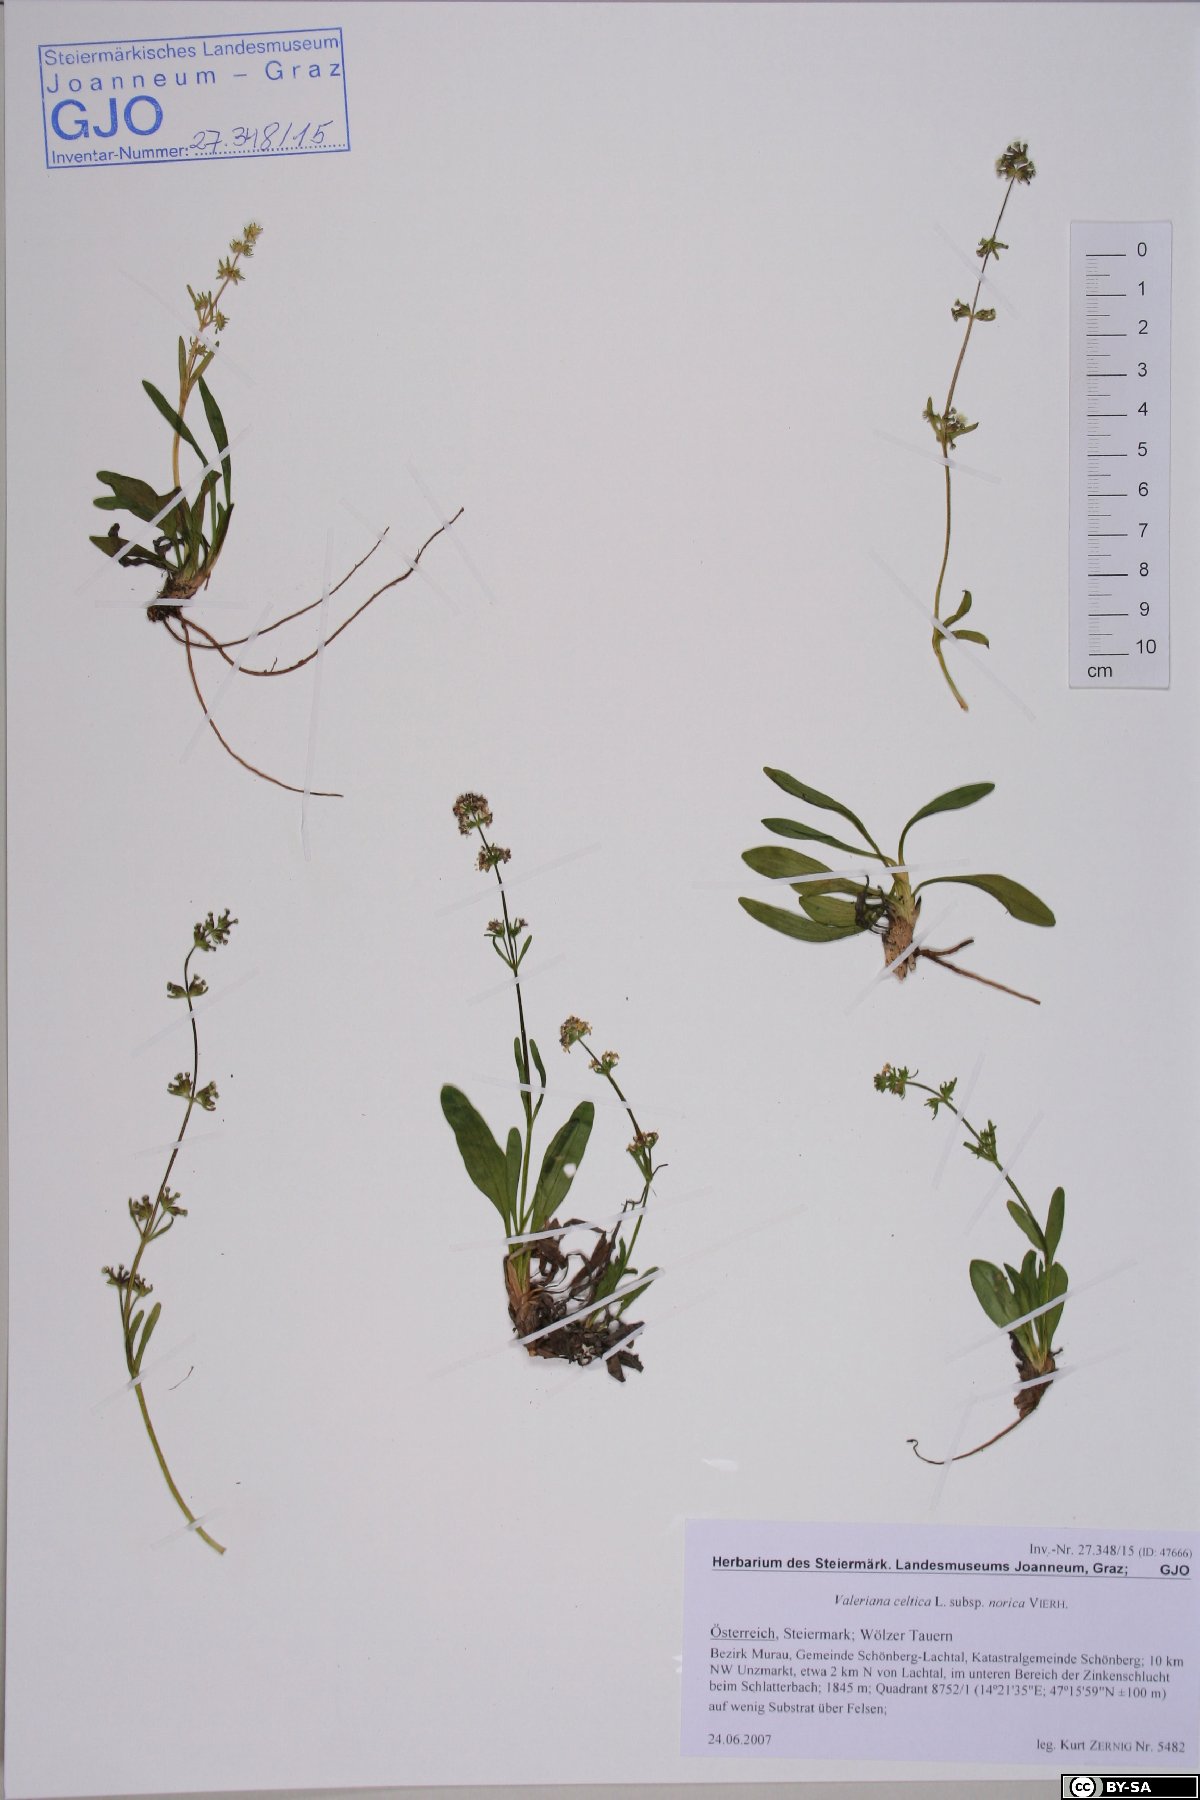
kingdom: Plantae
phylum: Tracheophyta
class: Magnoliopsida
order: Dipsacales
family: Caprifoliaceae
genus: Valeriana
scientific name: Valeriana celtica
